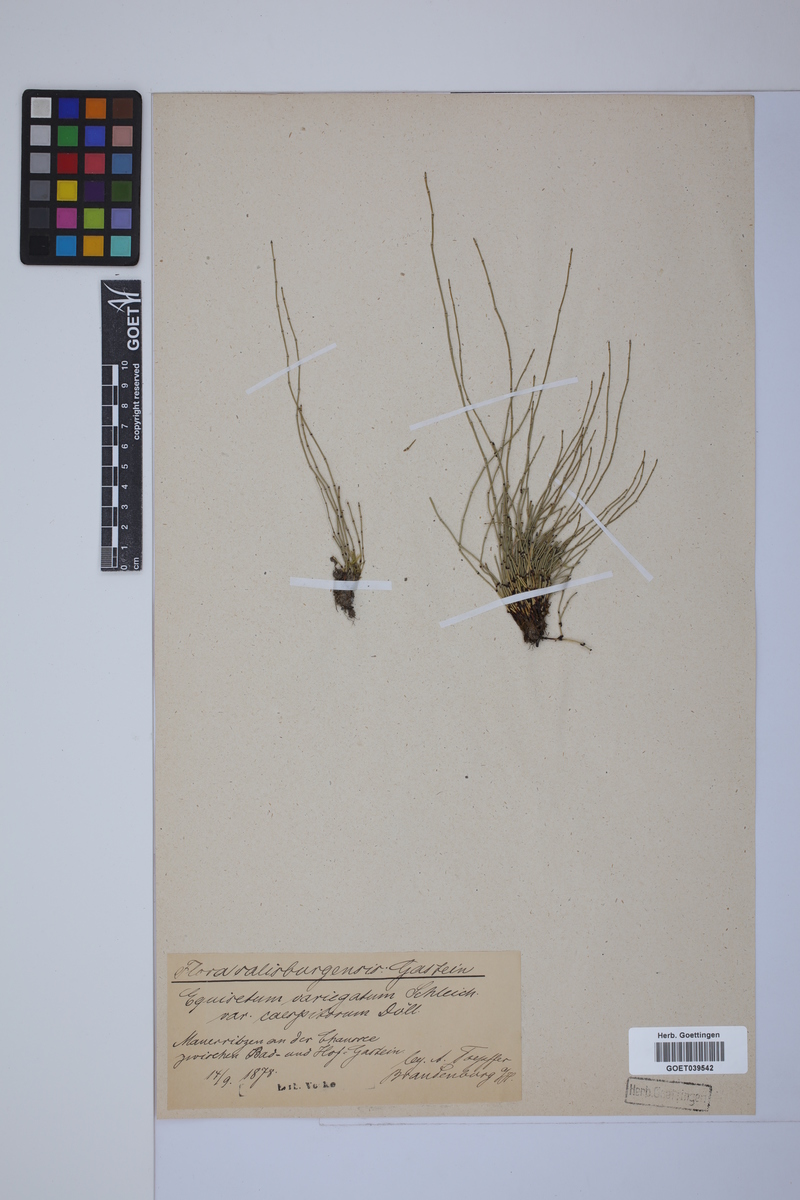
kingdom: Plantae
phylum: Tracheophyta
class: Polypodiopsida
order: Equisetales
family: Equisetaceae
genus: Equisetum
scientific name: Equisetum variegatum
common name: Variegated horsetail
